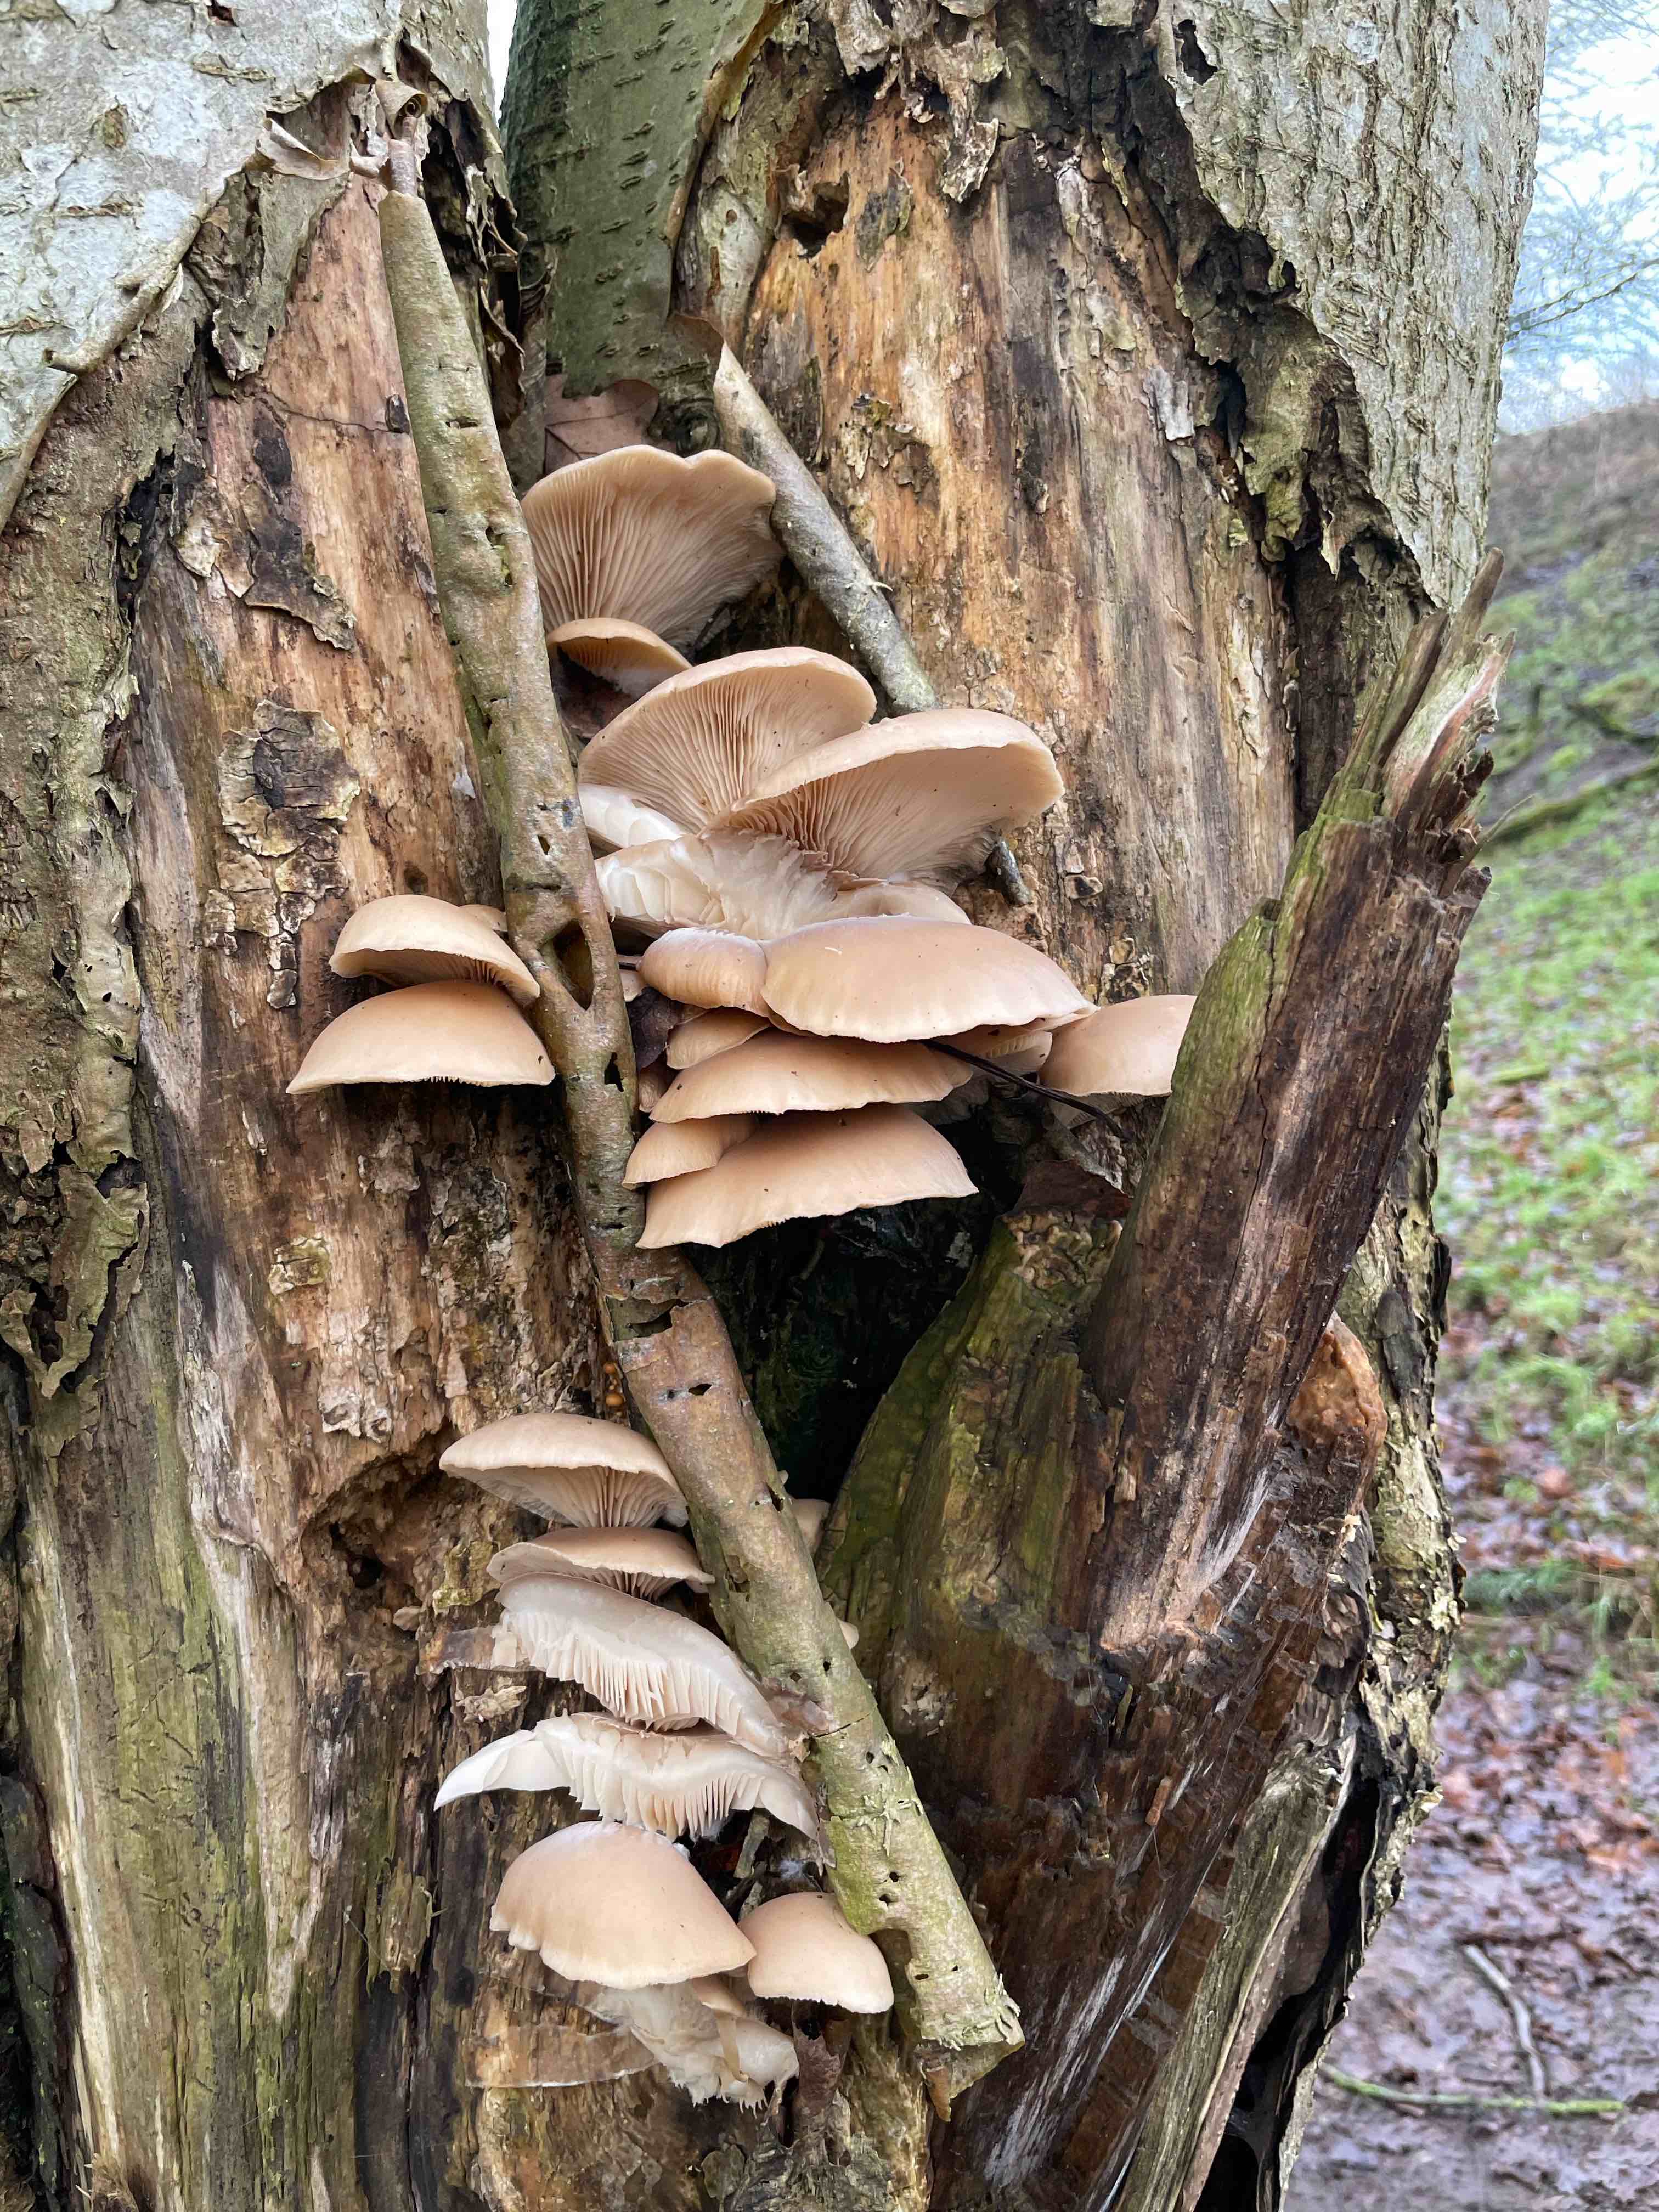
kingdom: Fungi
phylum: Basidiomycota
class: Agaricomycetes
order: Agaricales
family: Pleurotaceae
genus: Pleurotus
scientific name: Pleurotus ostreatus
